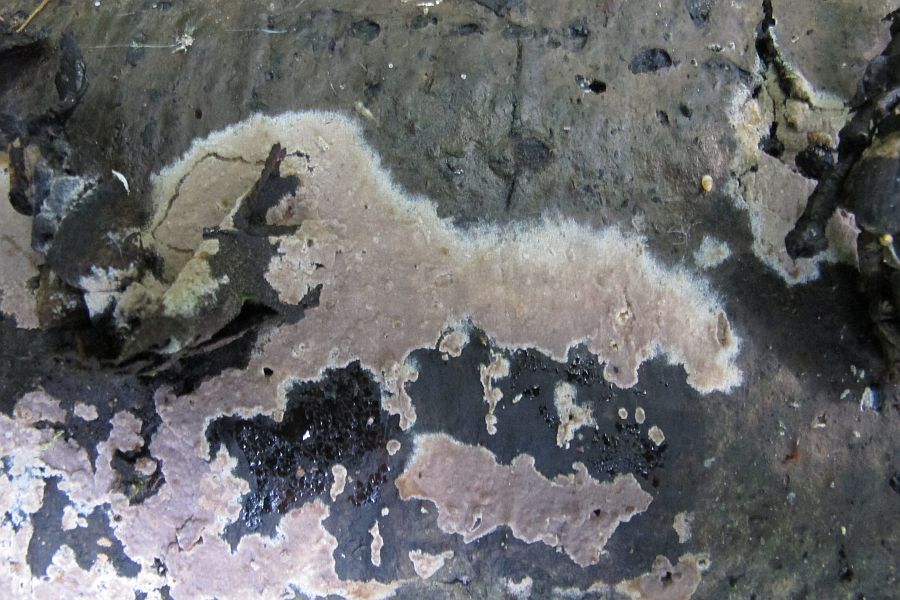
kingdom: Fungi
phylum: Basidiomycota
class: Agaricomycetes
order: Thelephorales
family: Thelephoraceae
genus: Thelephora
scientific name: Thelephora wakefieldiae
